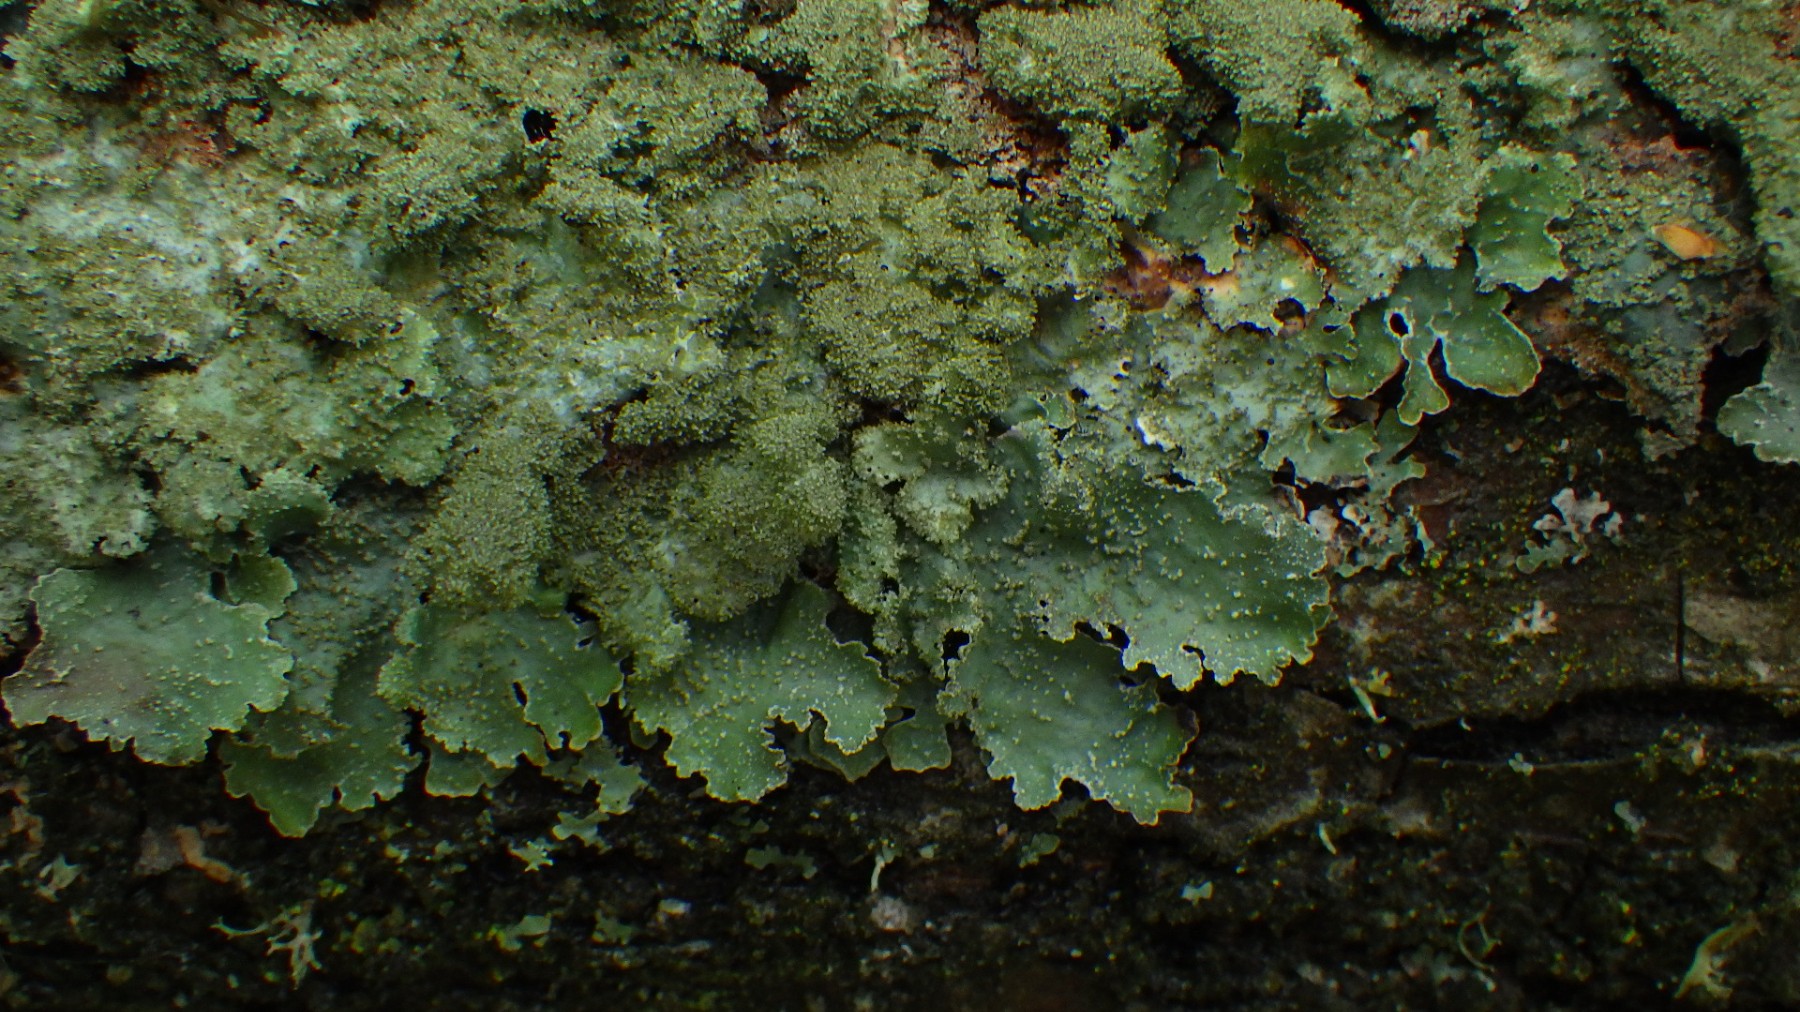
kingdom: Fungi
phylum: Ascomycota
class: Lecanoromycetes
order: Lecanorales
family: Parmeliaceae
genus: Parmelia
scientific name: Parmelia saxatilis
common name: farve-skållav
